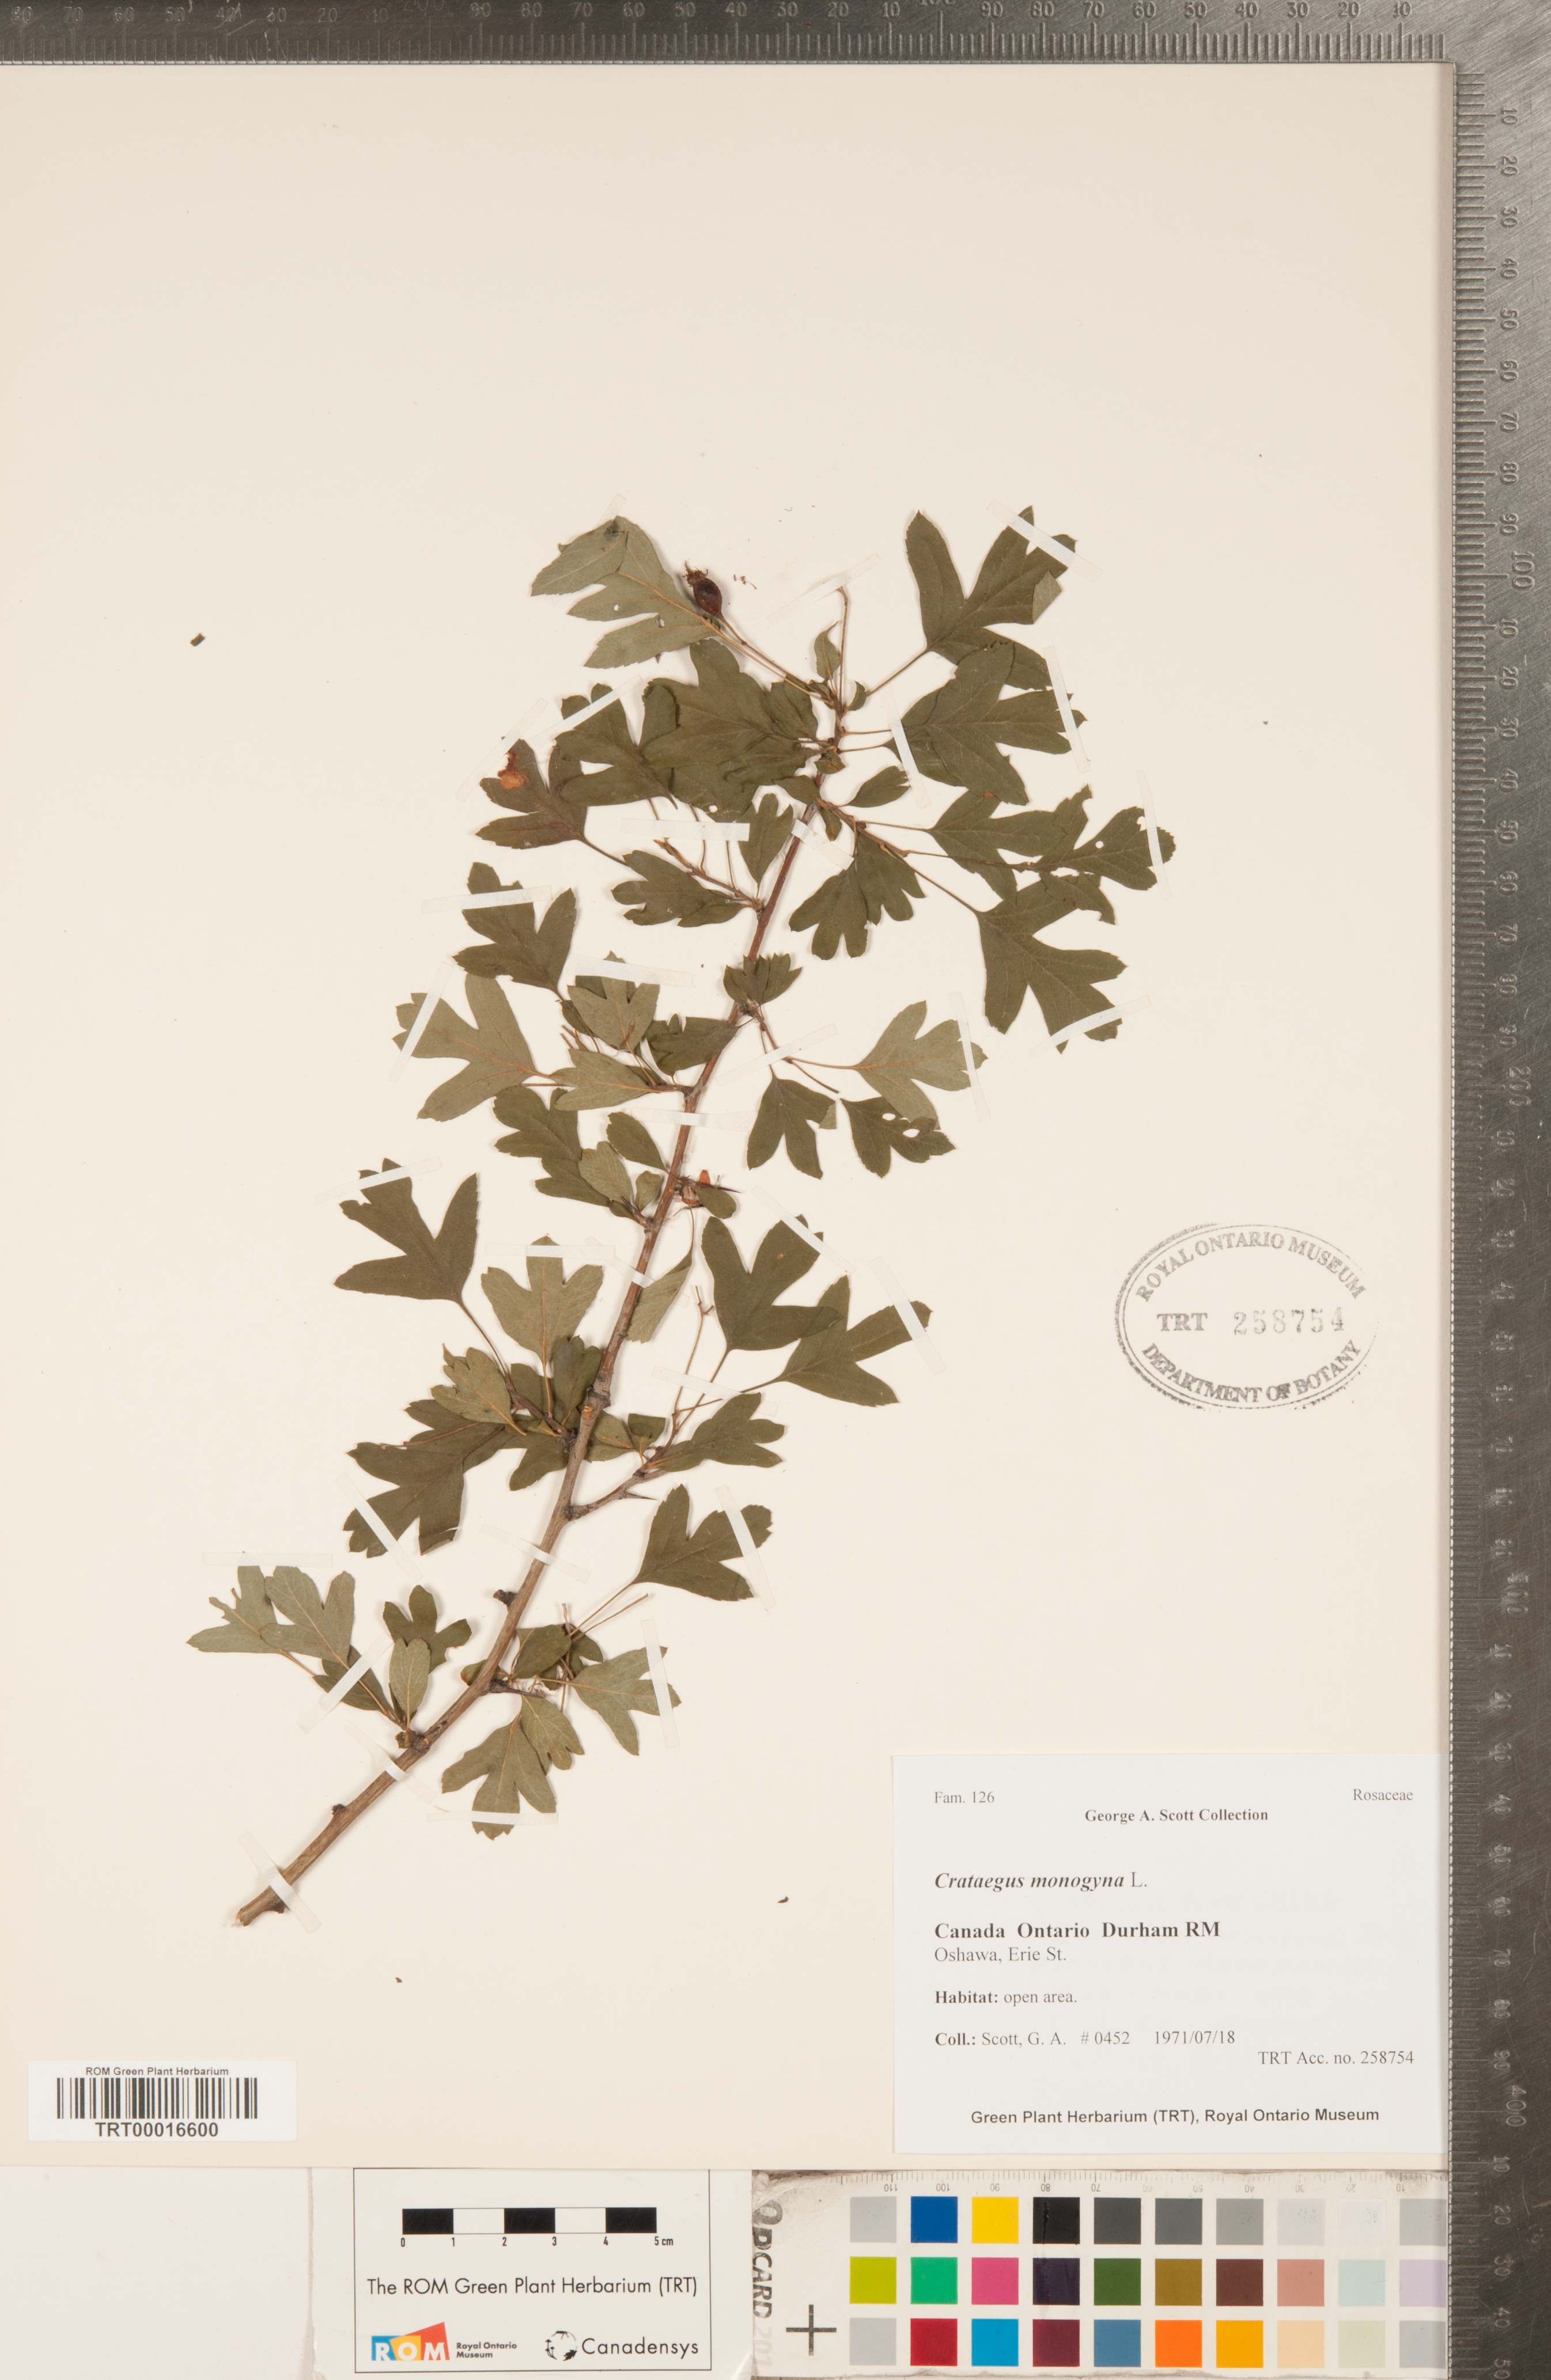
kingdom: Plantae
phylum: Tracheophyta
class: Magnoliopsida
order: Rosales
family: Rosaceae
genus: Crataegus
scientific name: Crataegus monogyna
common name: Hawthorn
